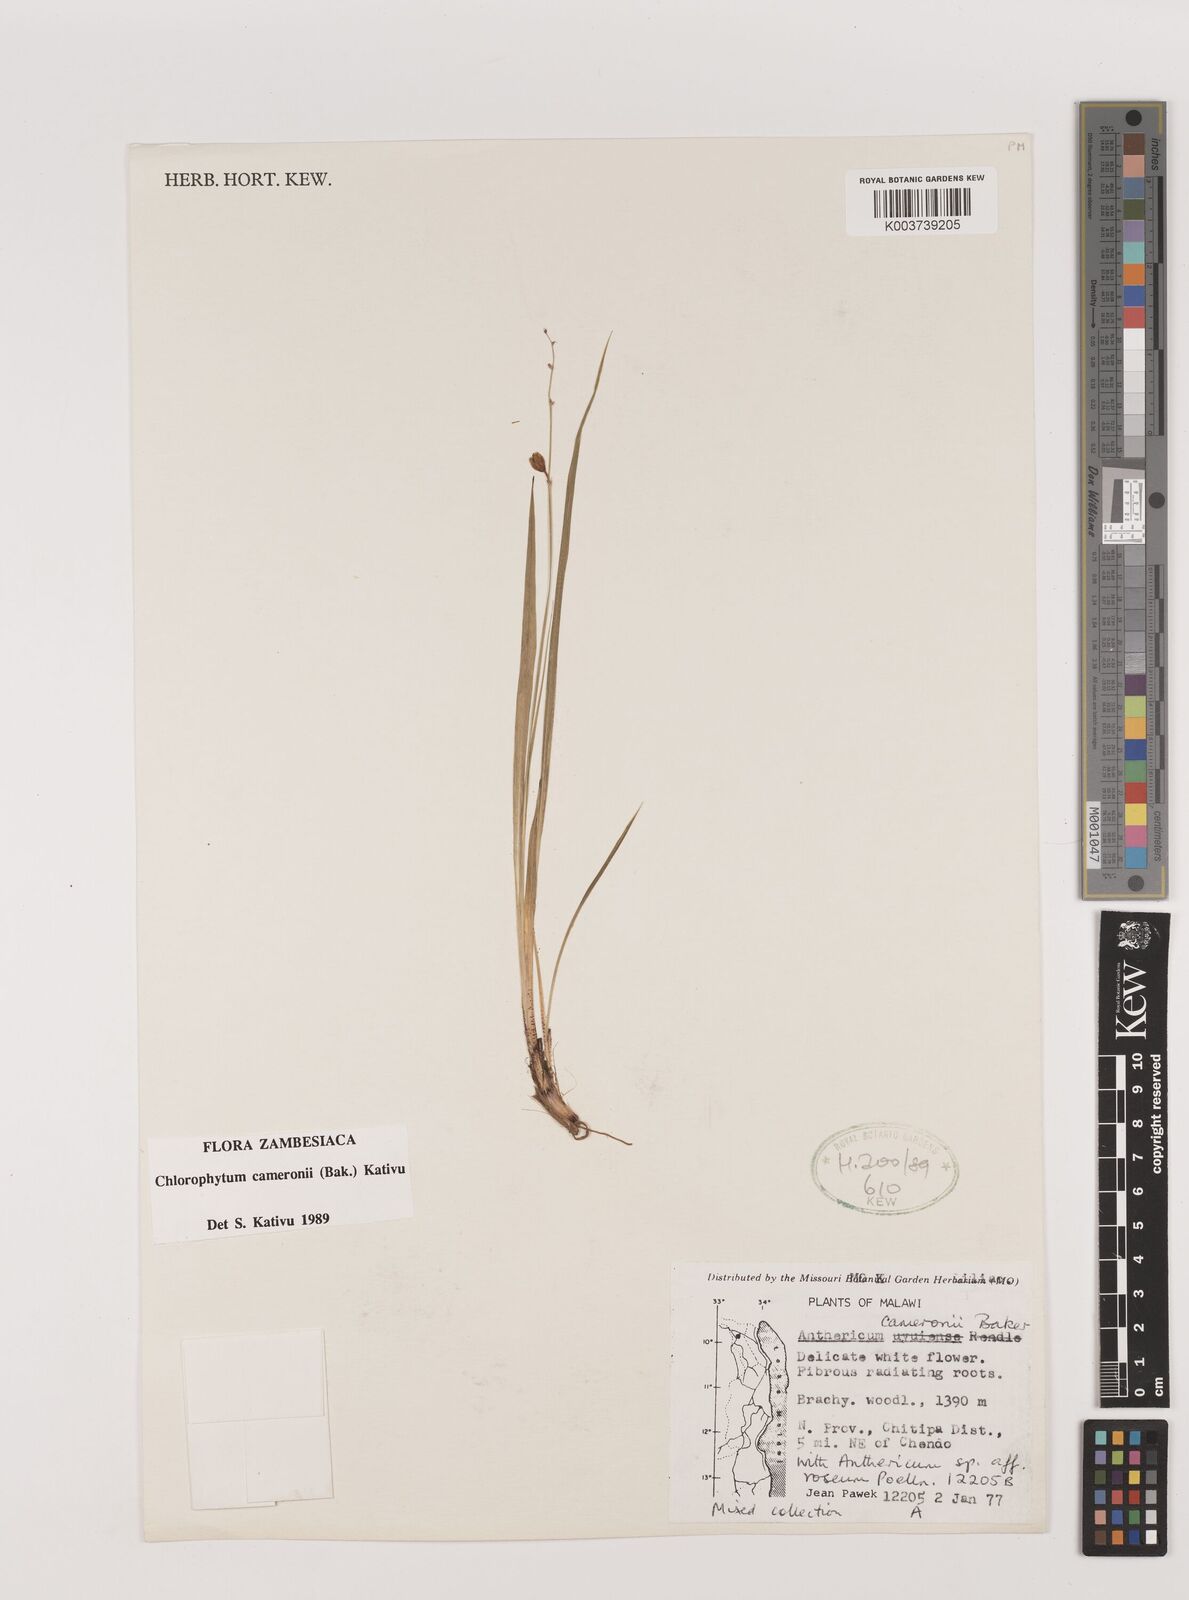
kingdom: Plantae
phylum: Tracheophyta
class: Liliopsida
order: Asparagales
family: Asparagaceae
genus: Chlorophytum
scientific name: Chlorophytum cameronii
